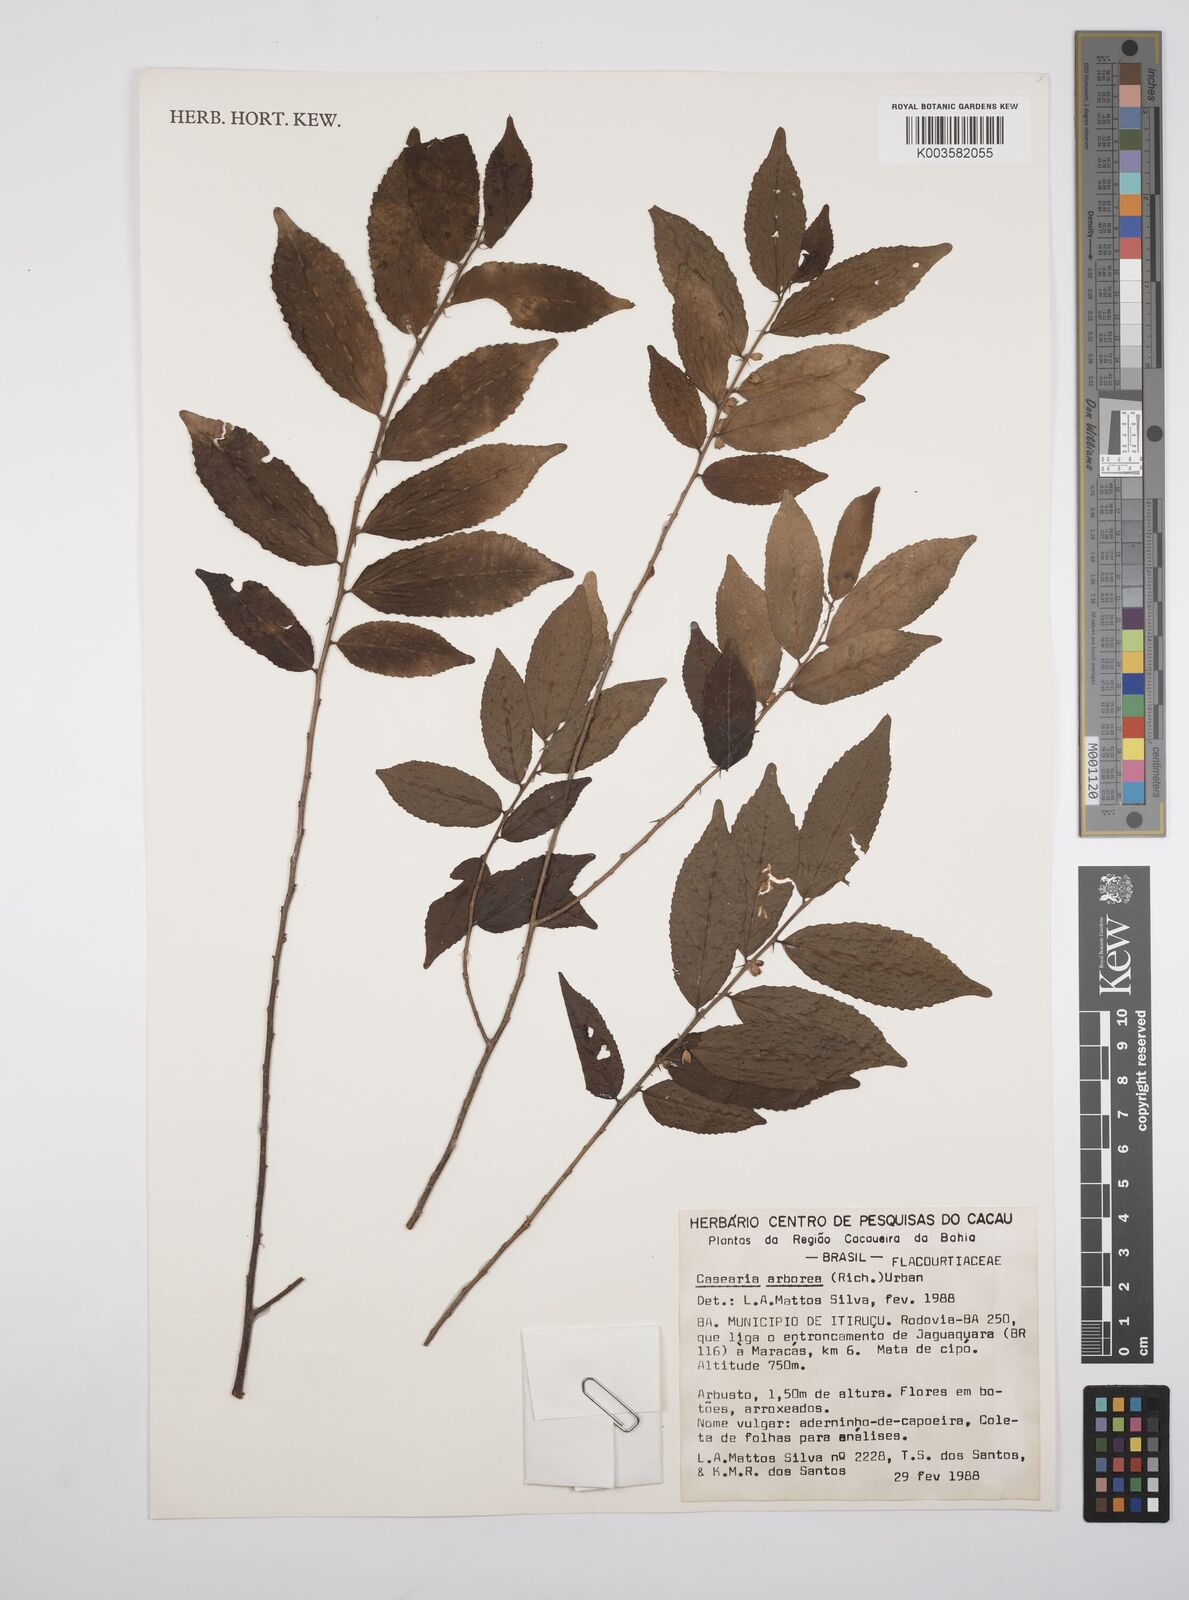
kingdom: Plantae
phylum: Tracheophyta
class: Magnoliopsida
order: Malpighiales
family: Salicaceae
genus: Casearia
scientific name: Casearia arborea
